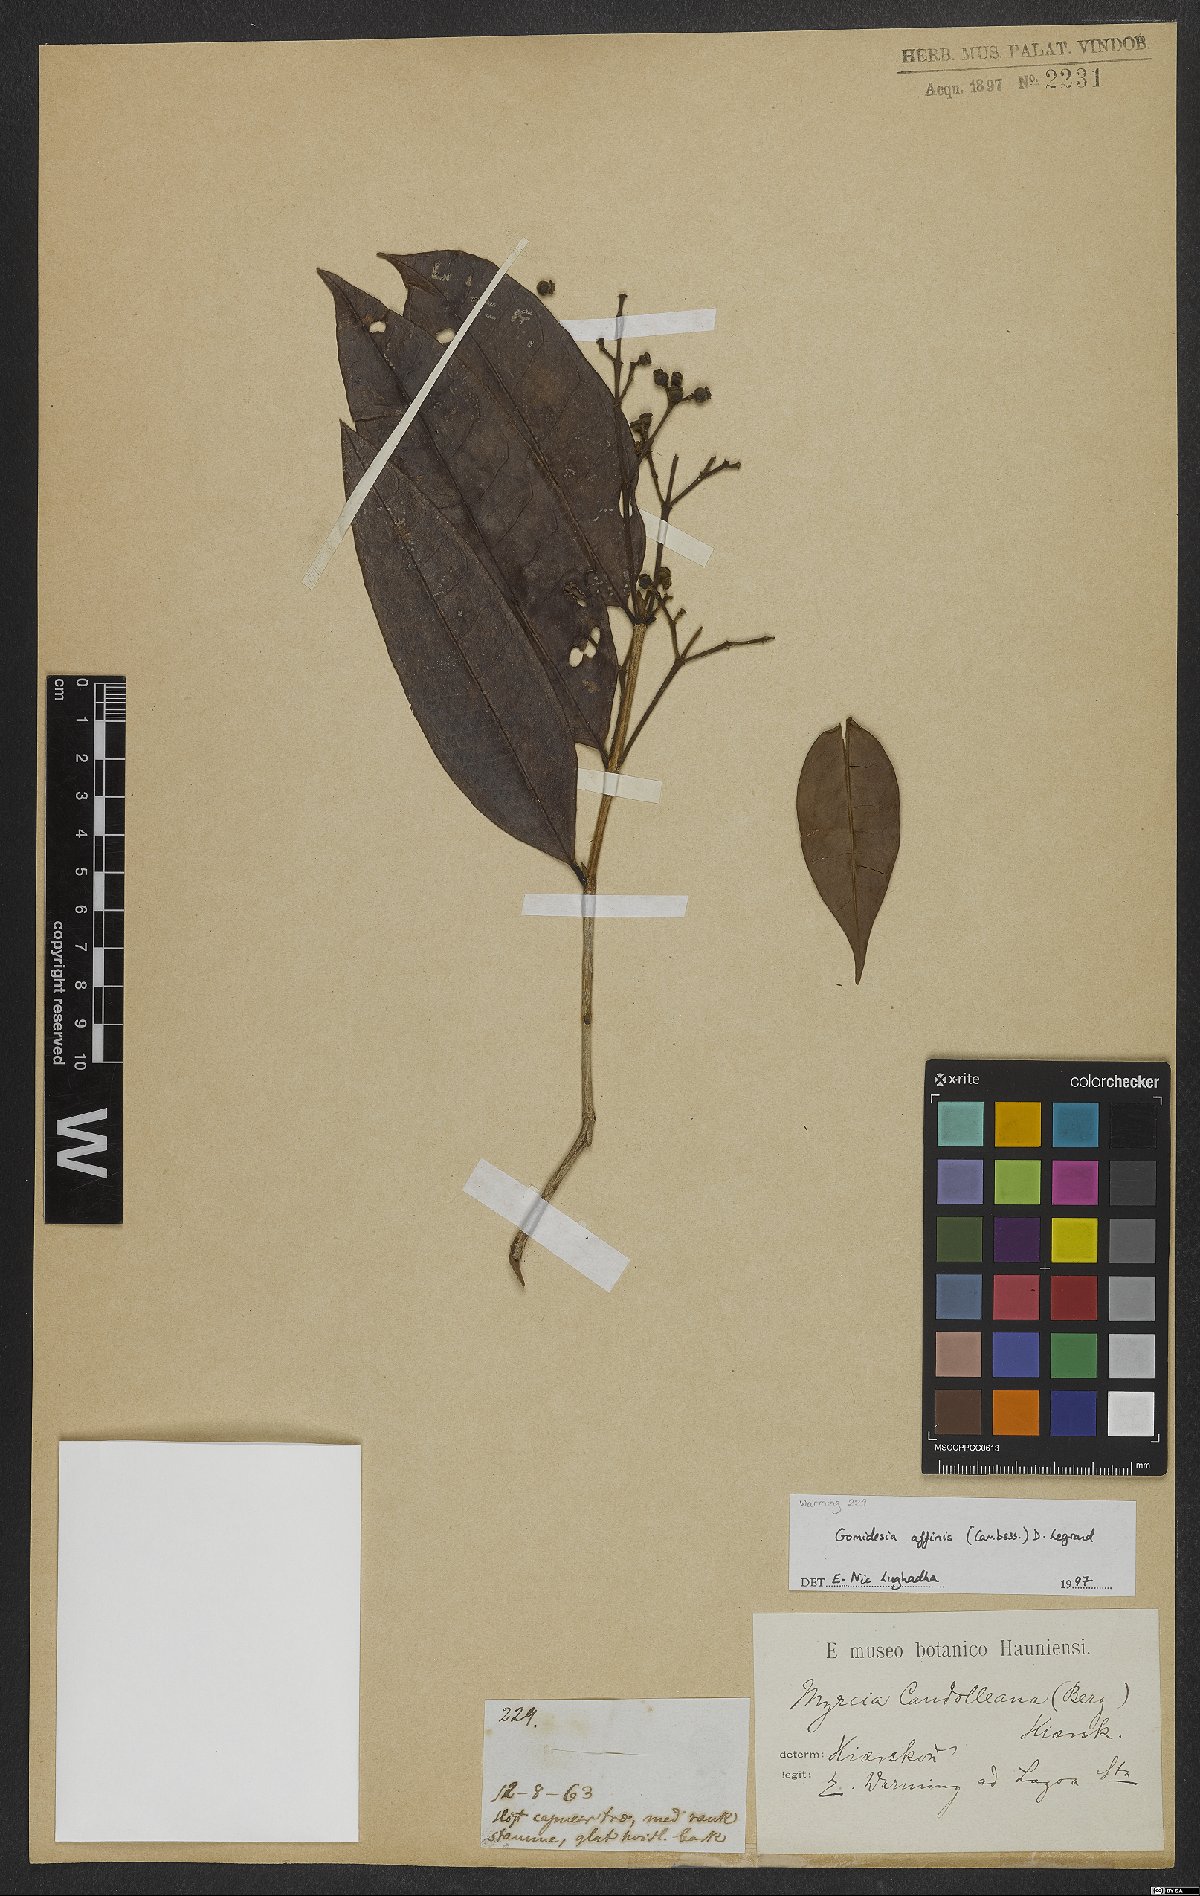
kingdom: Plantae
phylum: Tracheophyta
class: Magnoliopsida
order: Myrtales
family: Myrtaceae
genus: Myrcia
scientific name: Myrcia hebepetala
